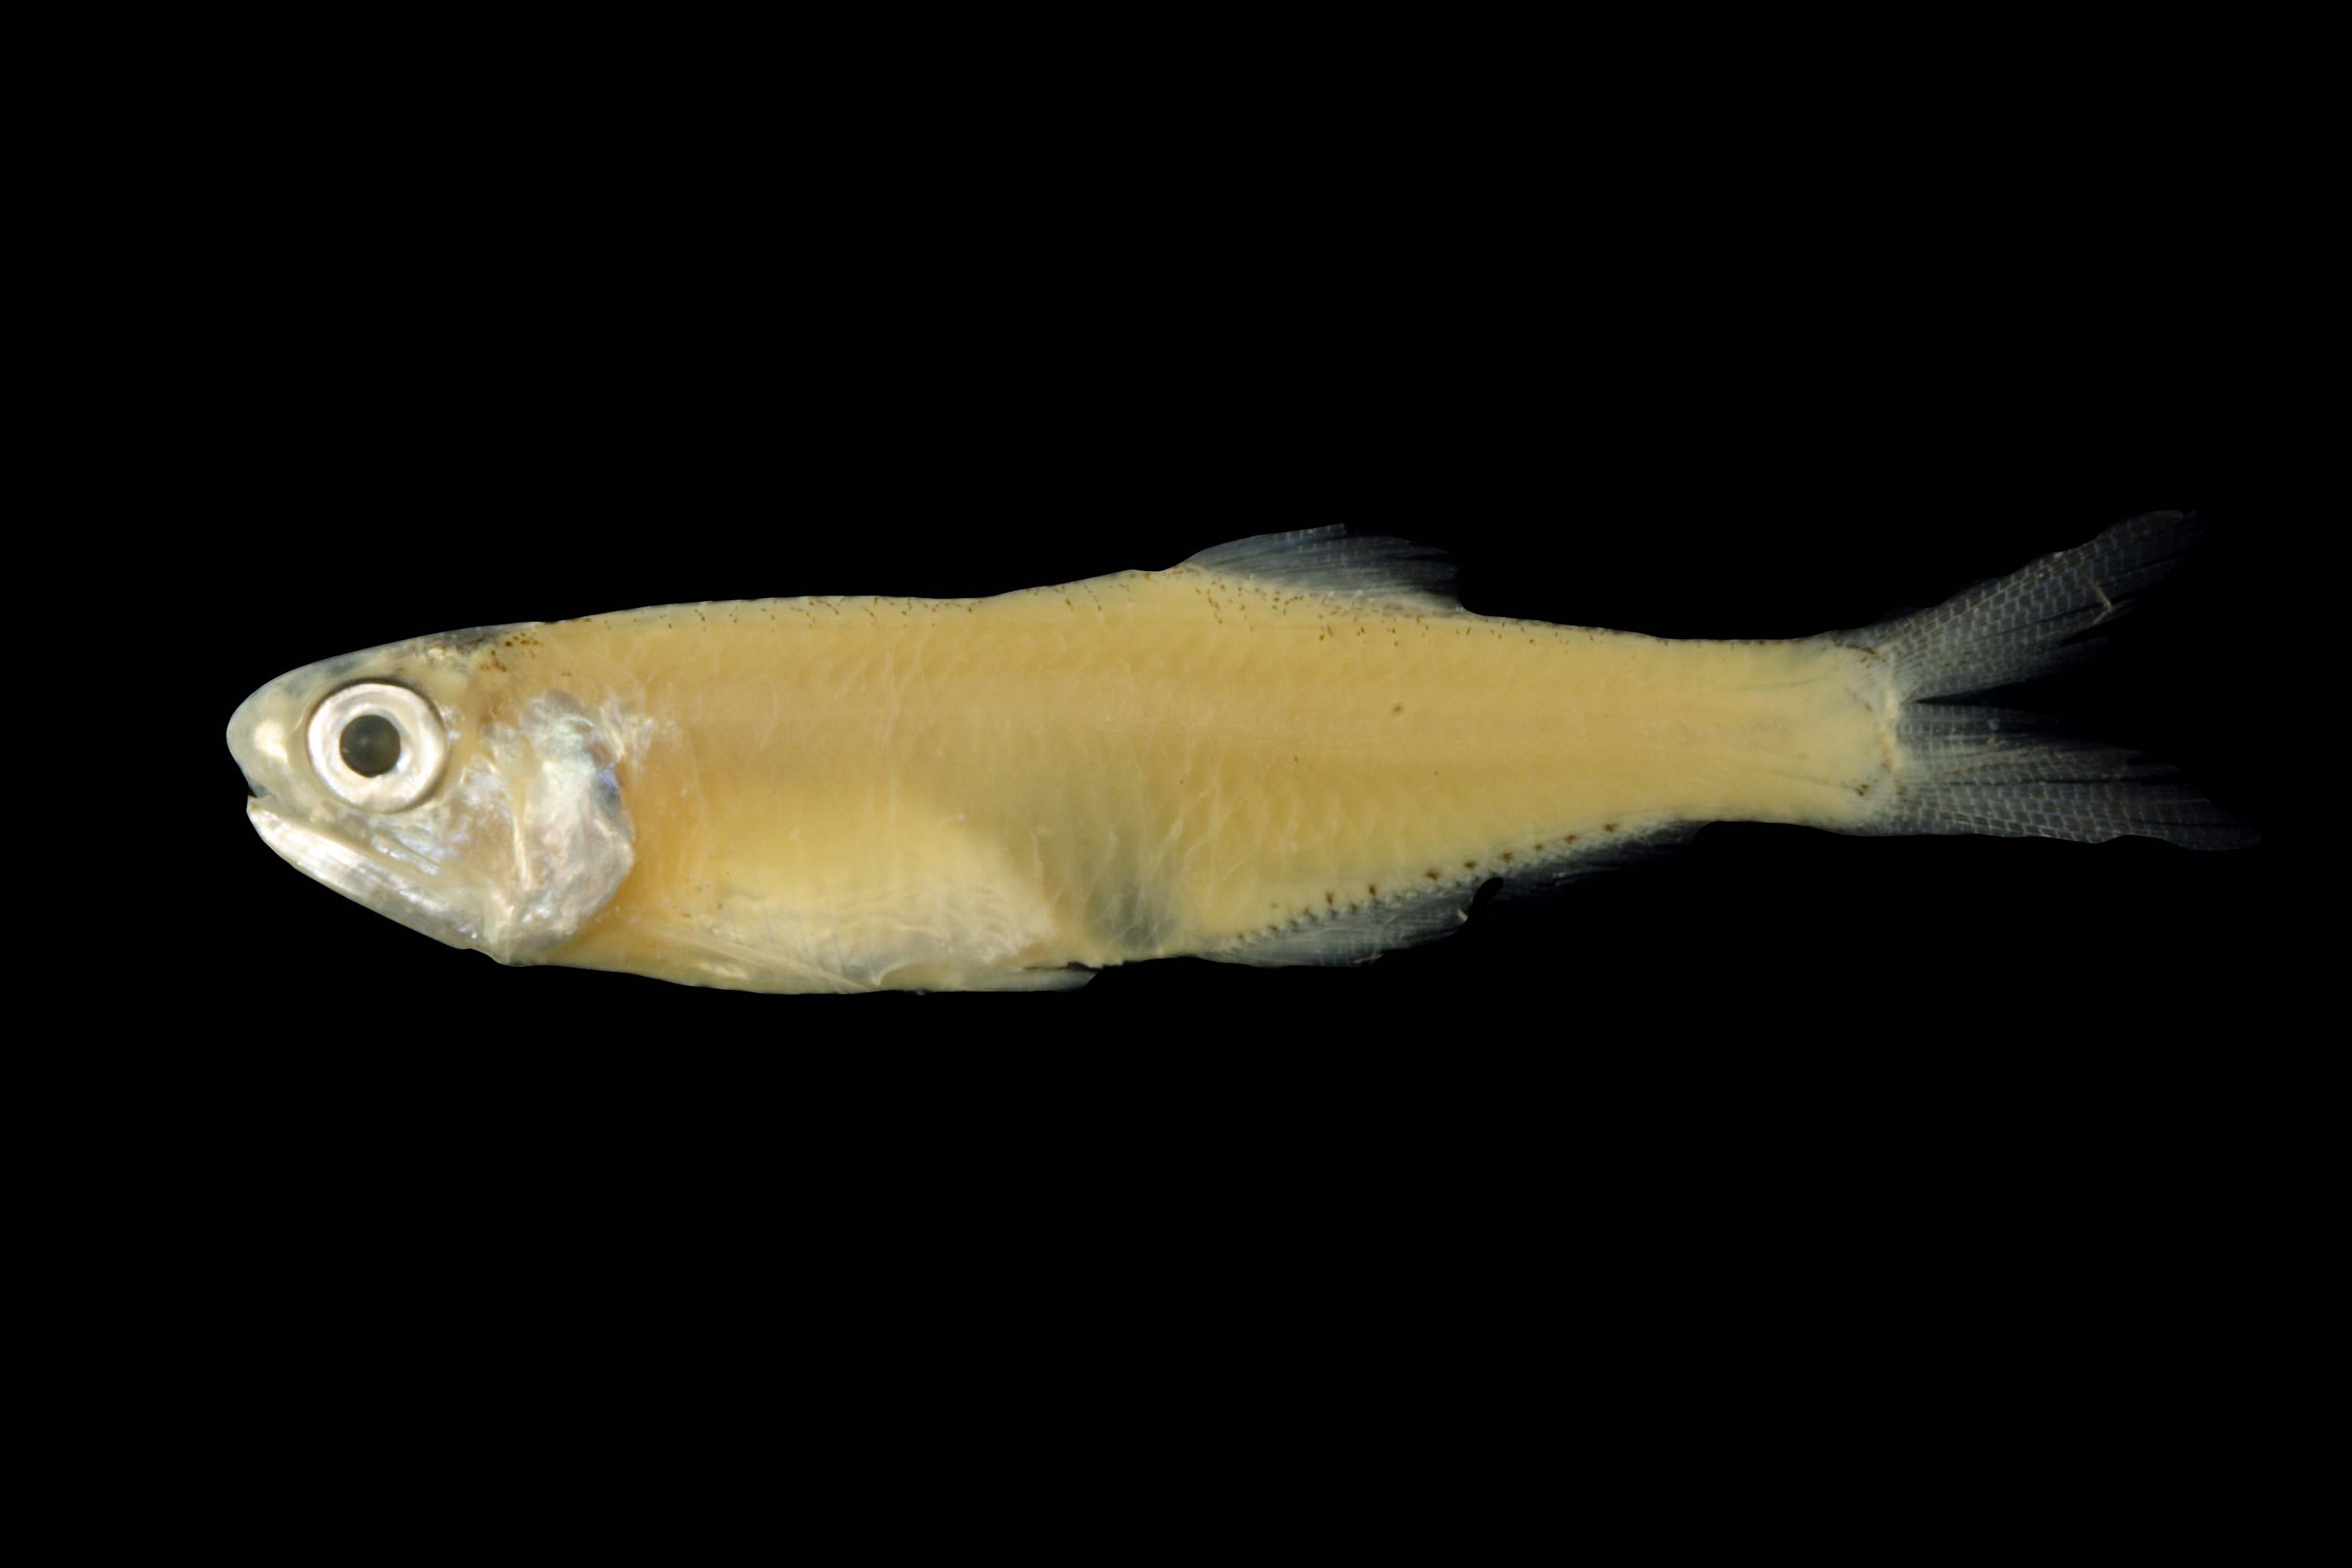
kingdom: Animalia
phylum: Chordata
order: Clupeiformes
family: Engraulidae
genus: Anchoa
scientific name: Anchoa mitchilli
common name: Bay anchovy
